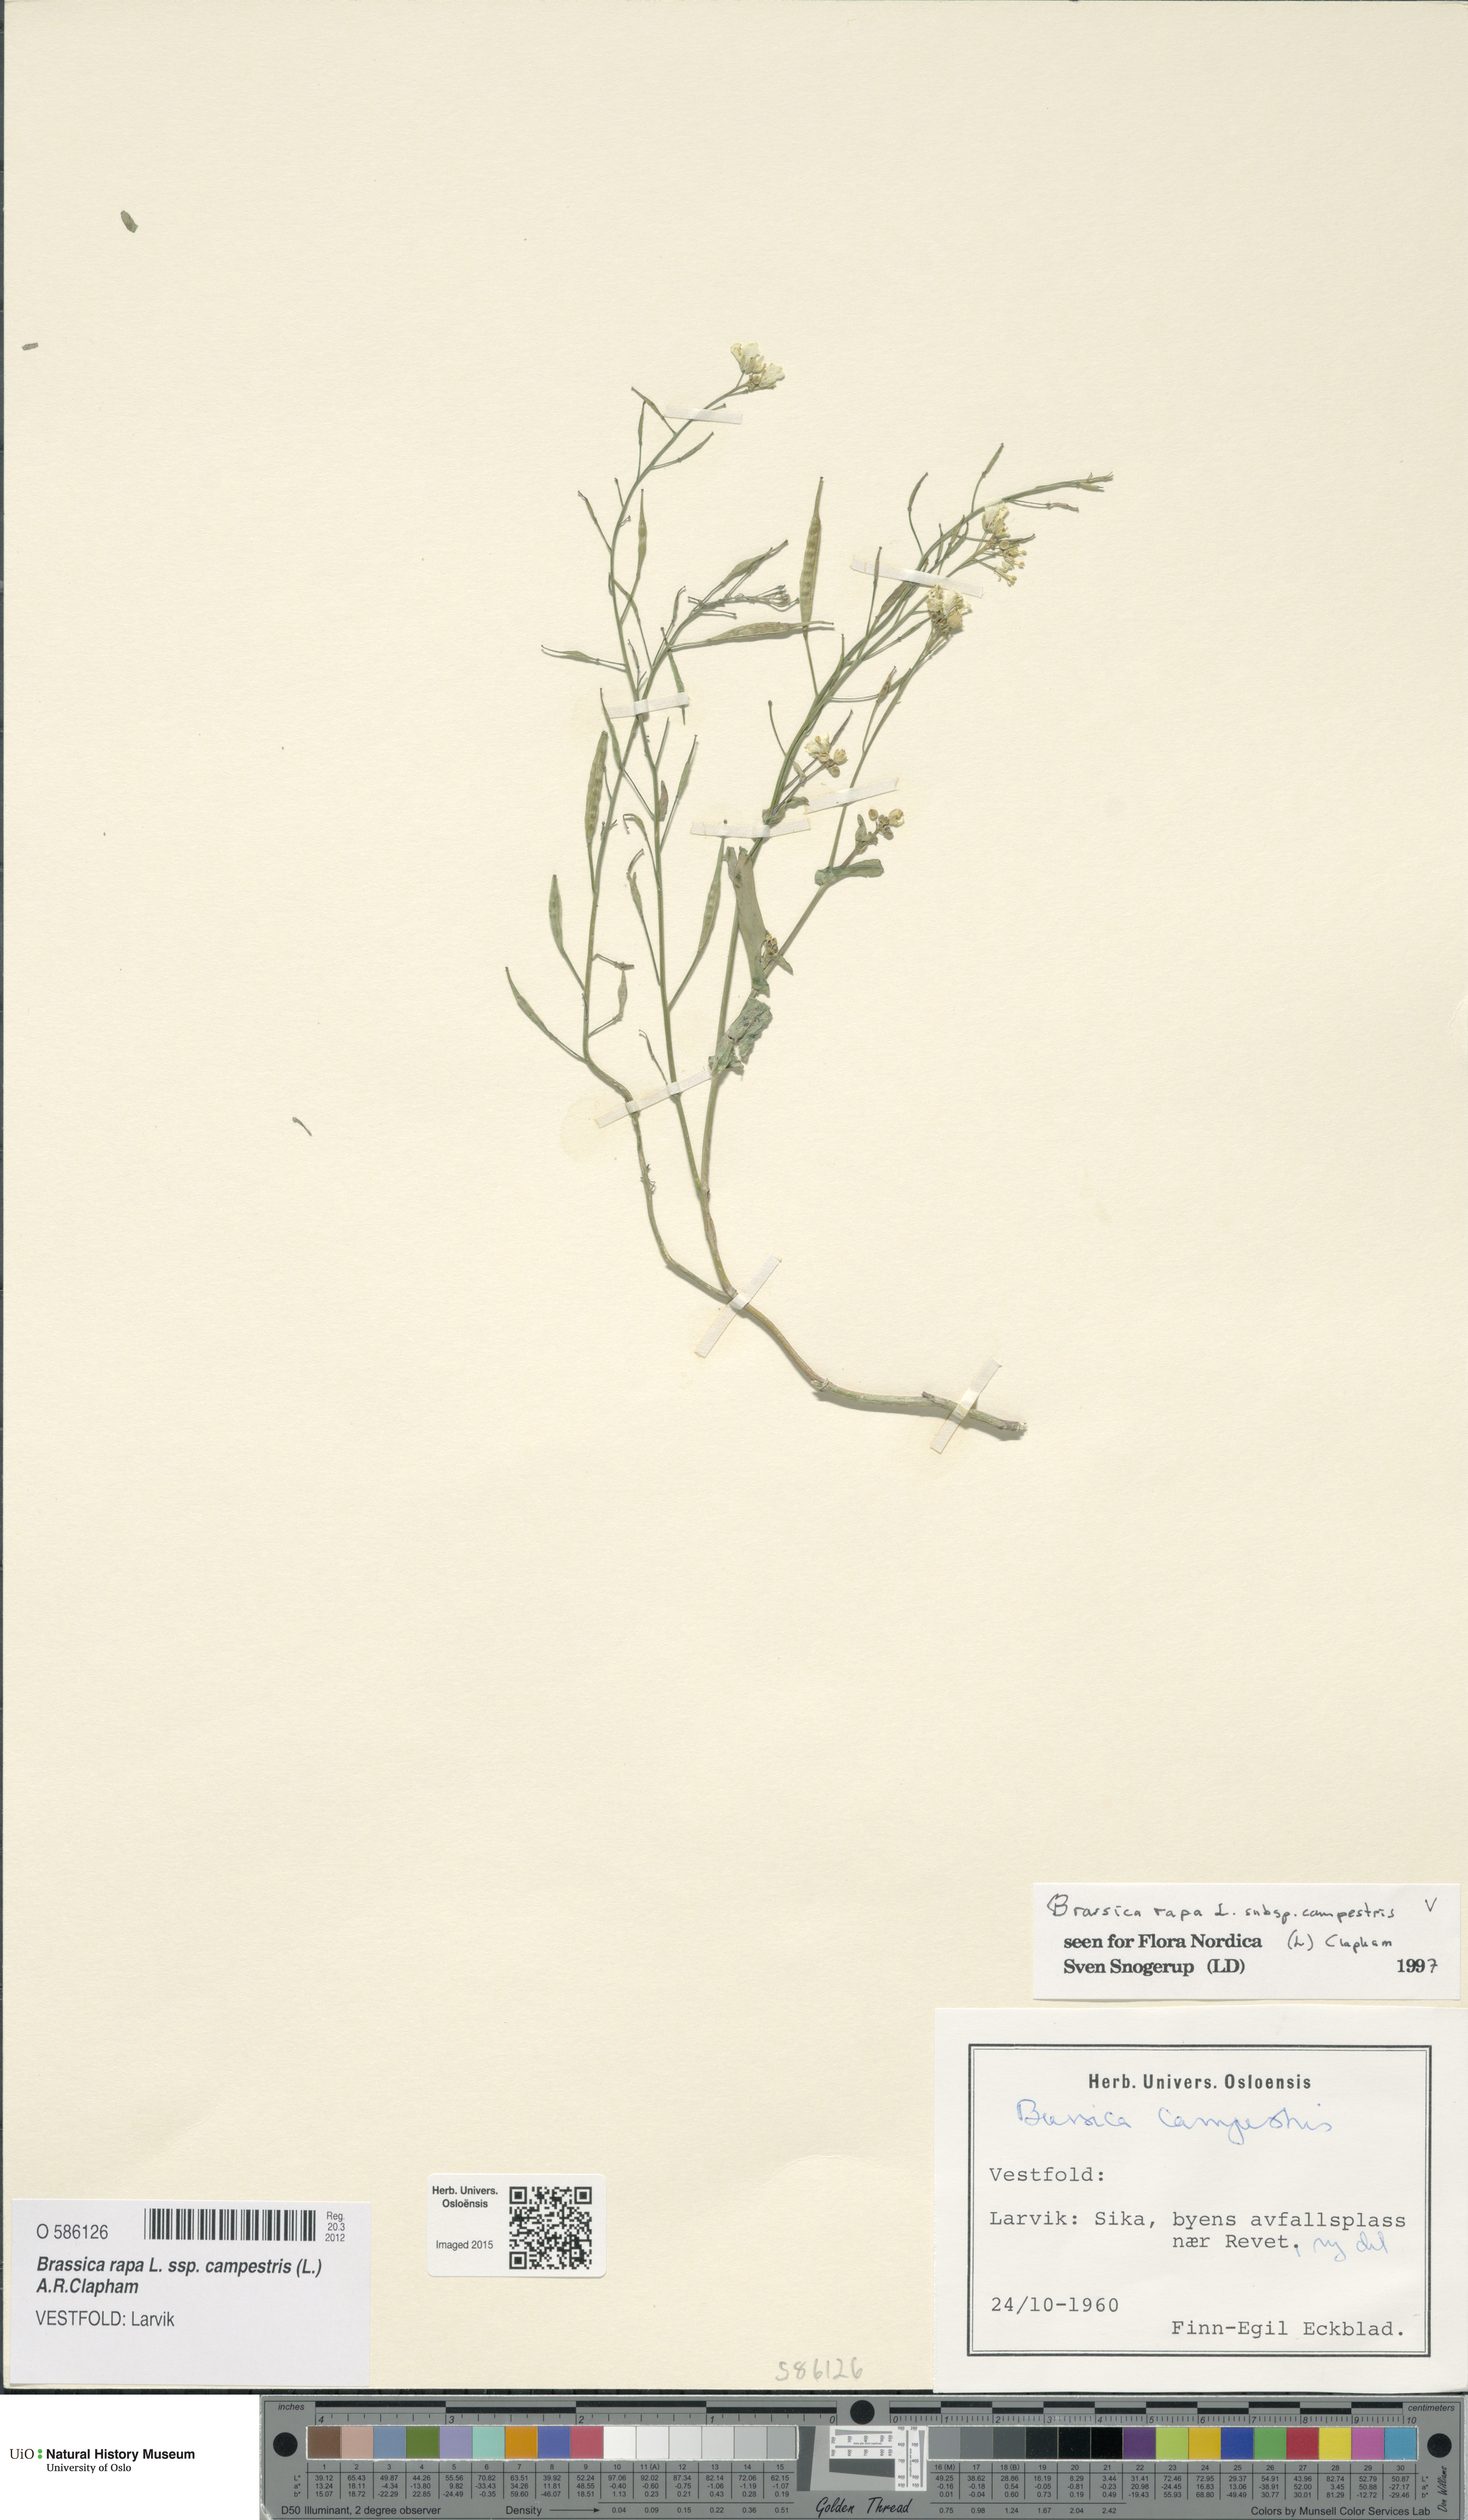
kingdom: Plantae
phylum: Tracheophyta
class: Magnoliopsida
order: Brassicales
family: Brassicaceae
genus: Brassica
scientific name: Brassica rapa
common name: Field mustard
